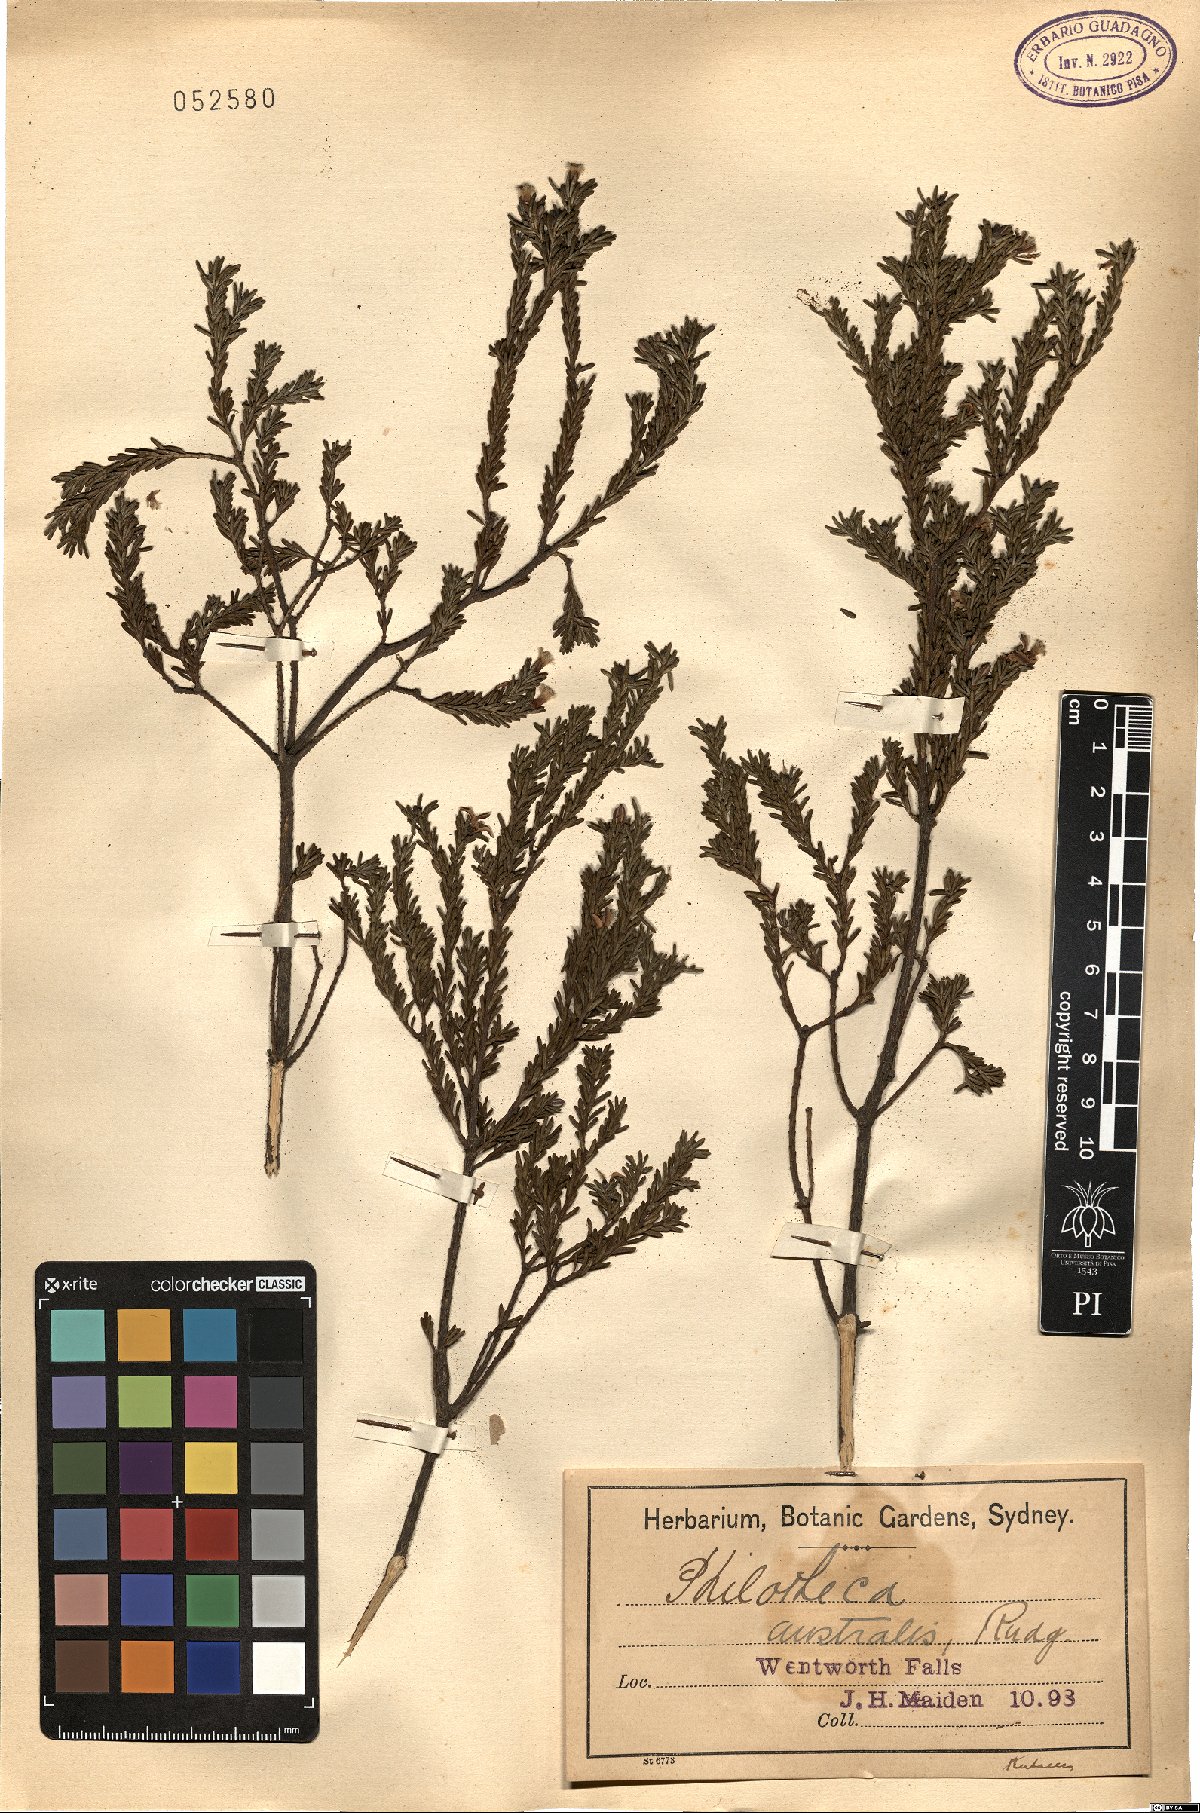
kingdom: Plantae
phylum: Tracheophyta
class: Magnoliopsida
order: Sapindales
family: Rutaceae
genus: Philotheca
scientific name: Philotheca
